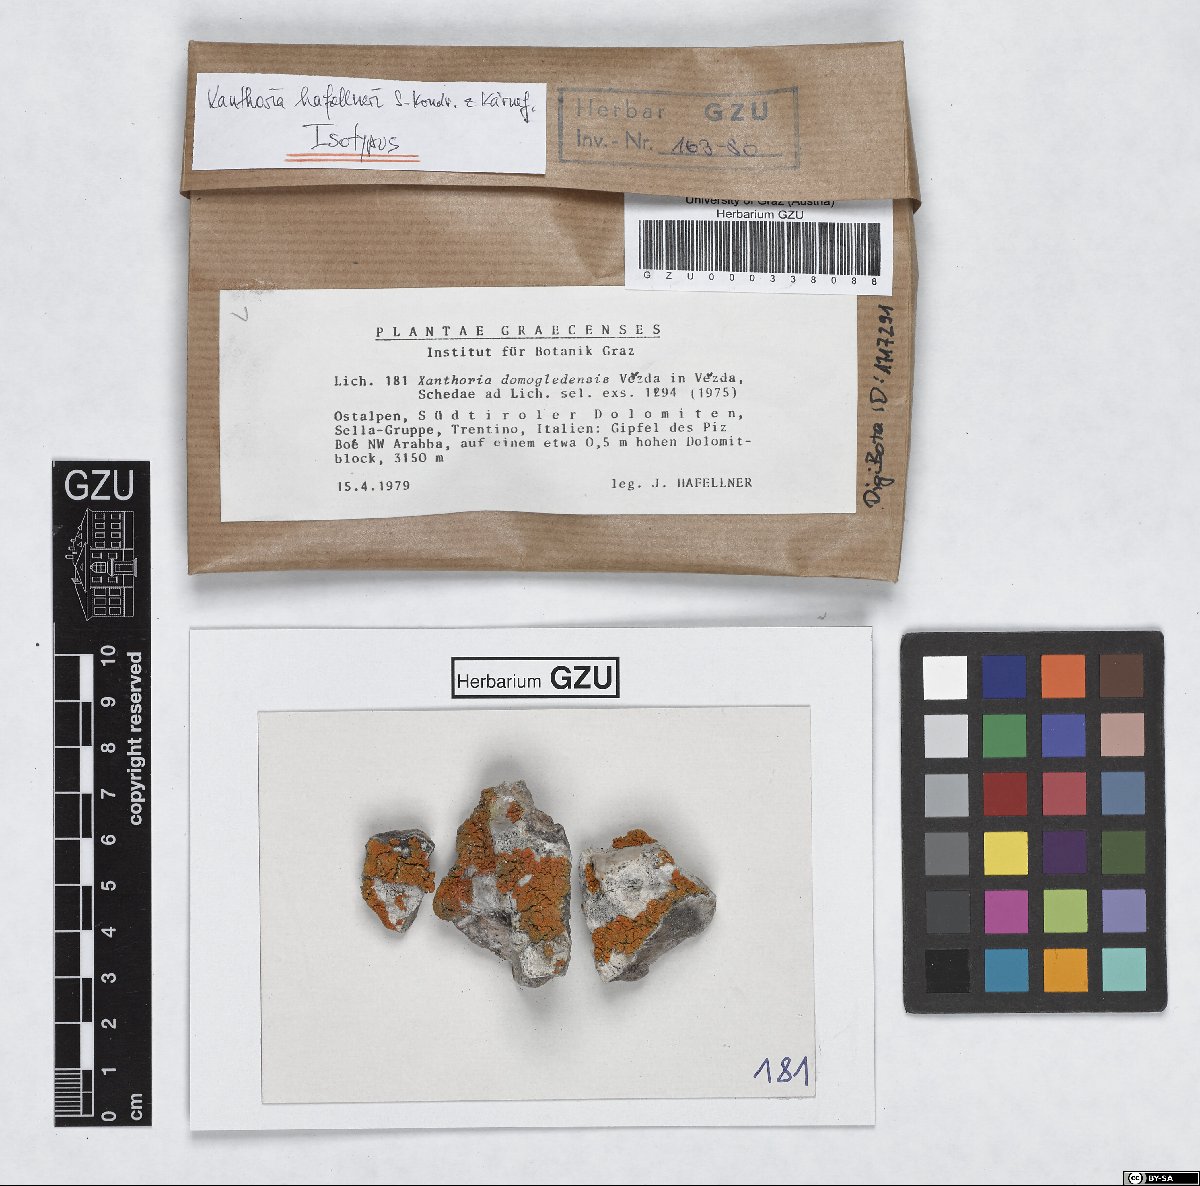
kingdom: Fungi
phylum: Ascomycota
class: Lecanoromycetes
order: Teloschistales
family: Teloschistaceae
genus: Rusavskia
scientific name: Rusavskia hafellneri
